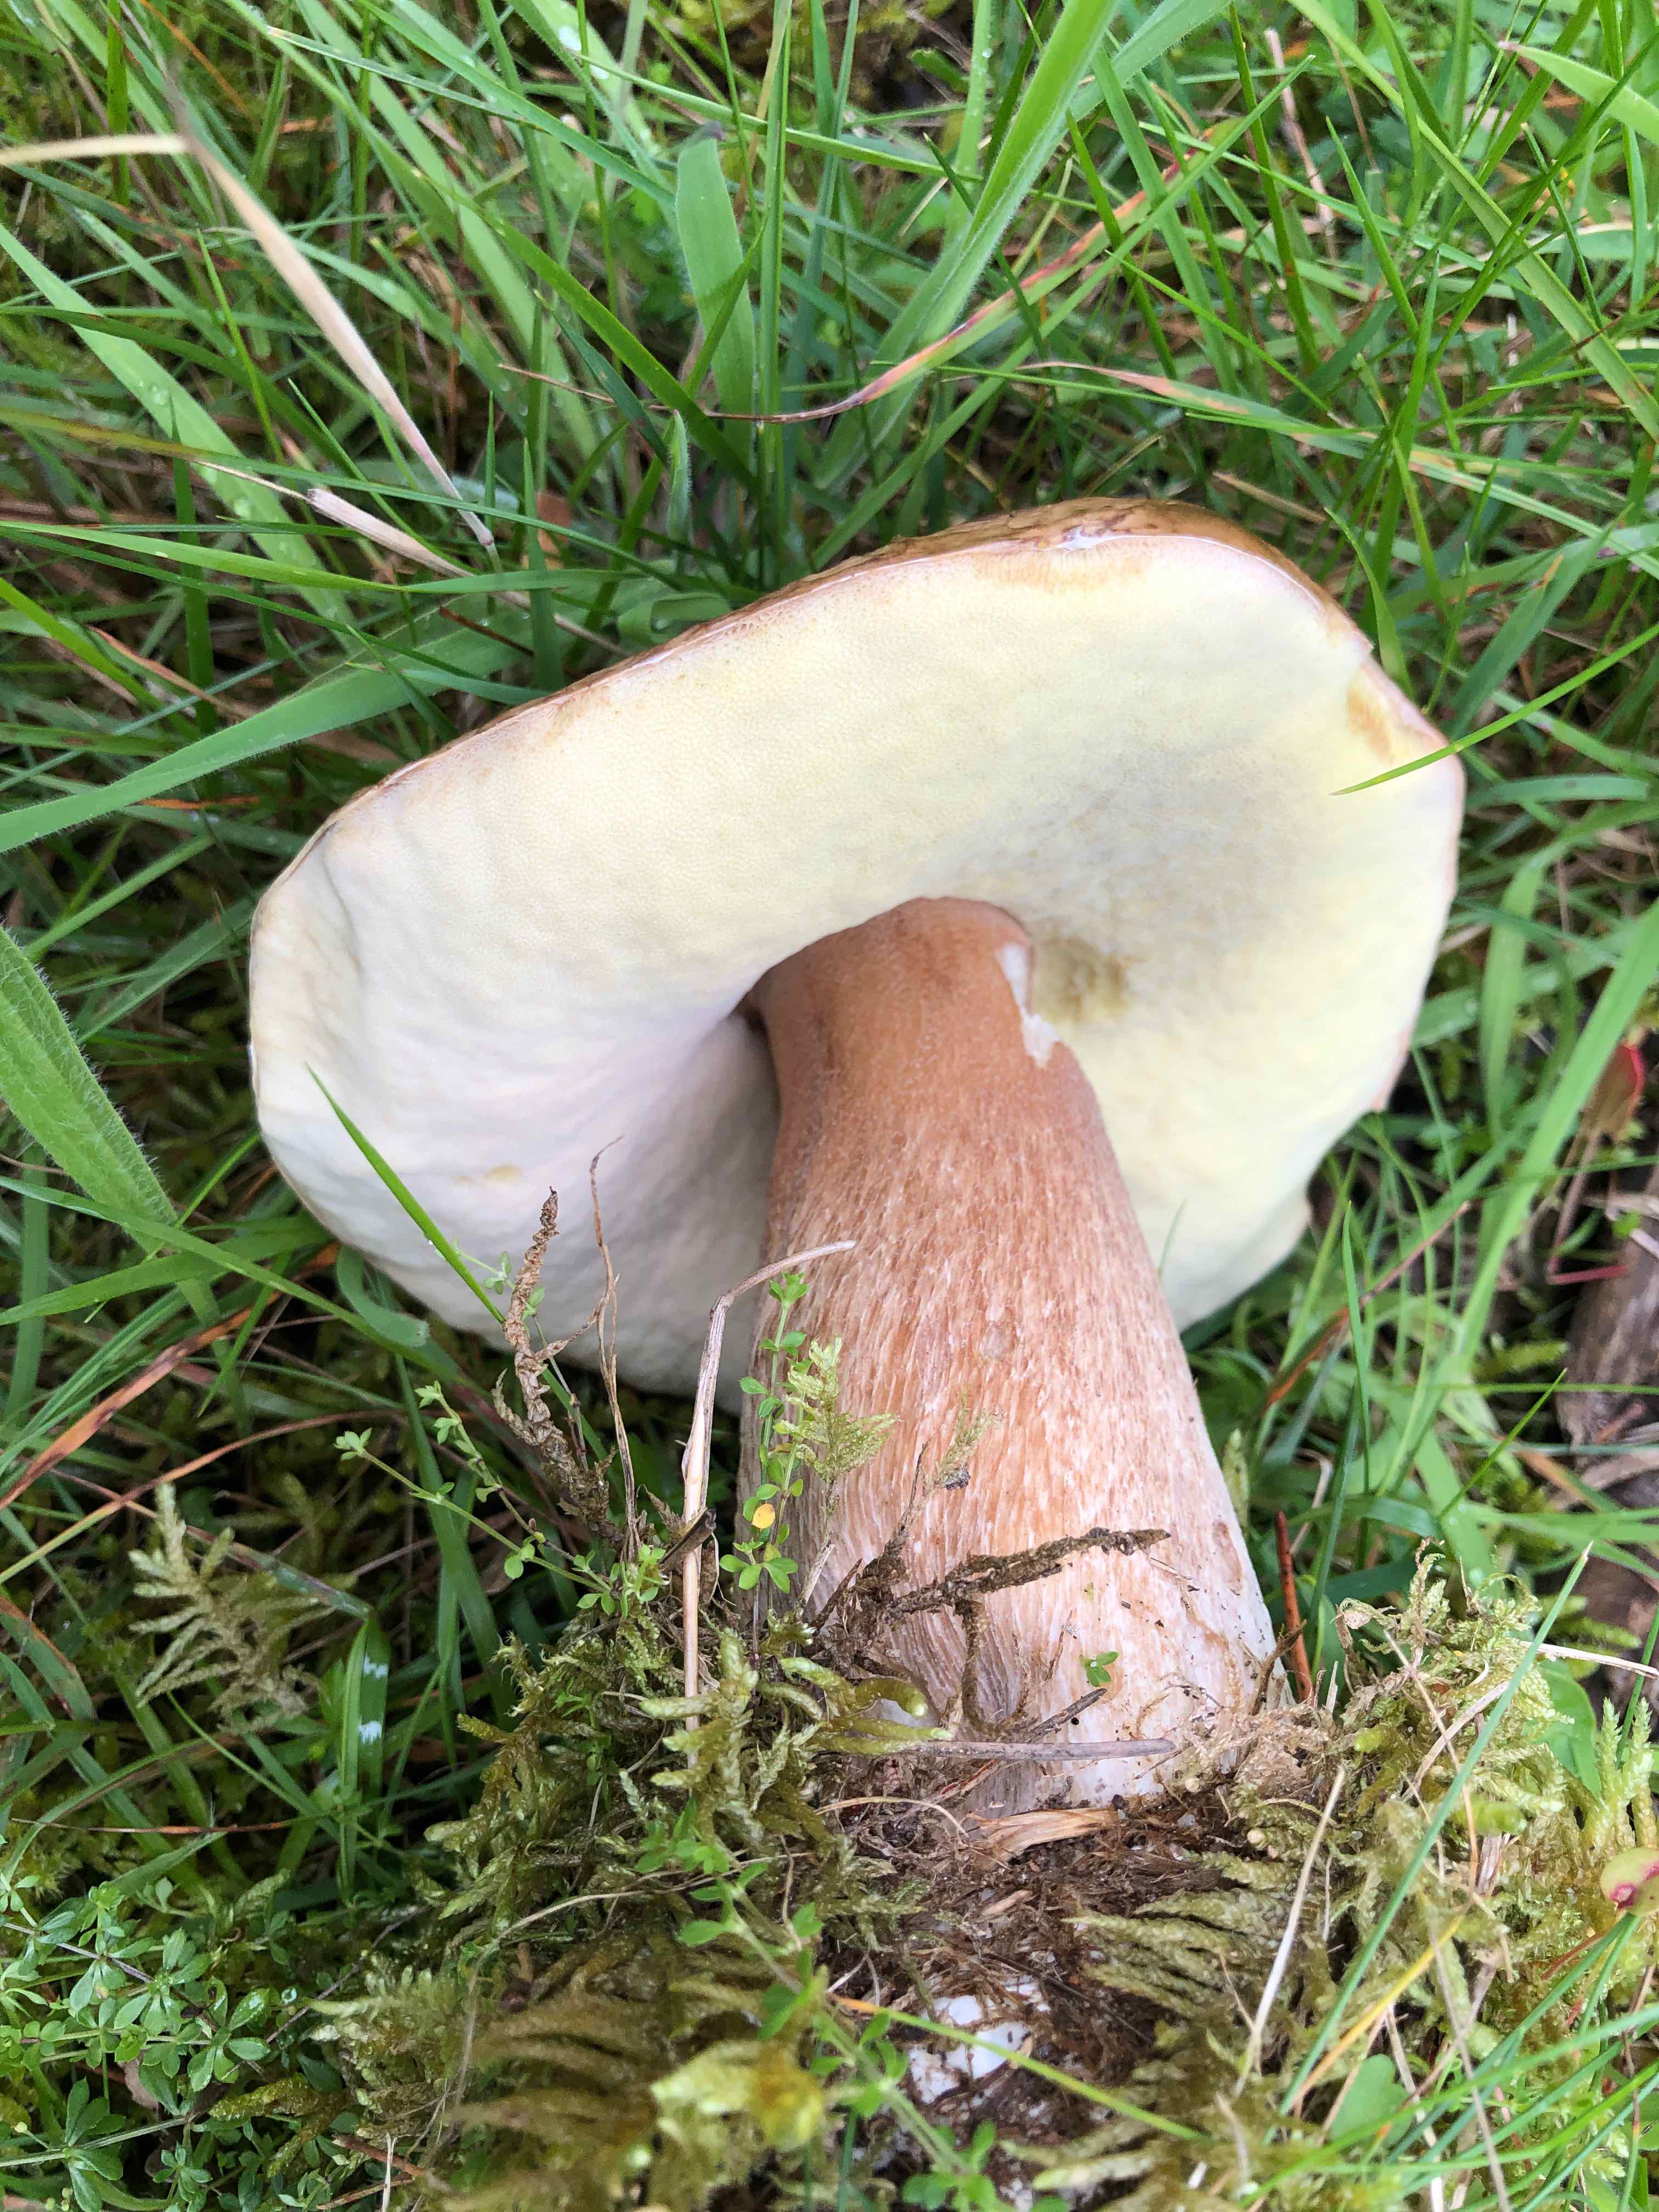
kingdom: Fungi
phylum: Basidiomycota
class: Agaricomycetes
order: Boletales
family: Boletaceae
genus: Boletus
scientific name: Boletus edulis
